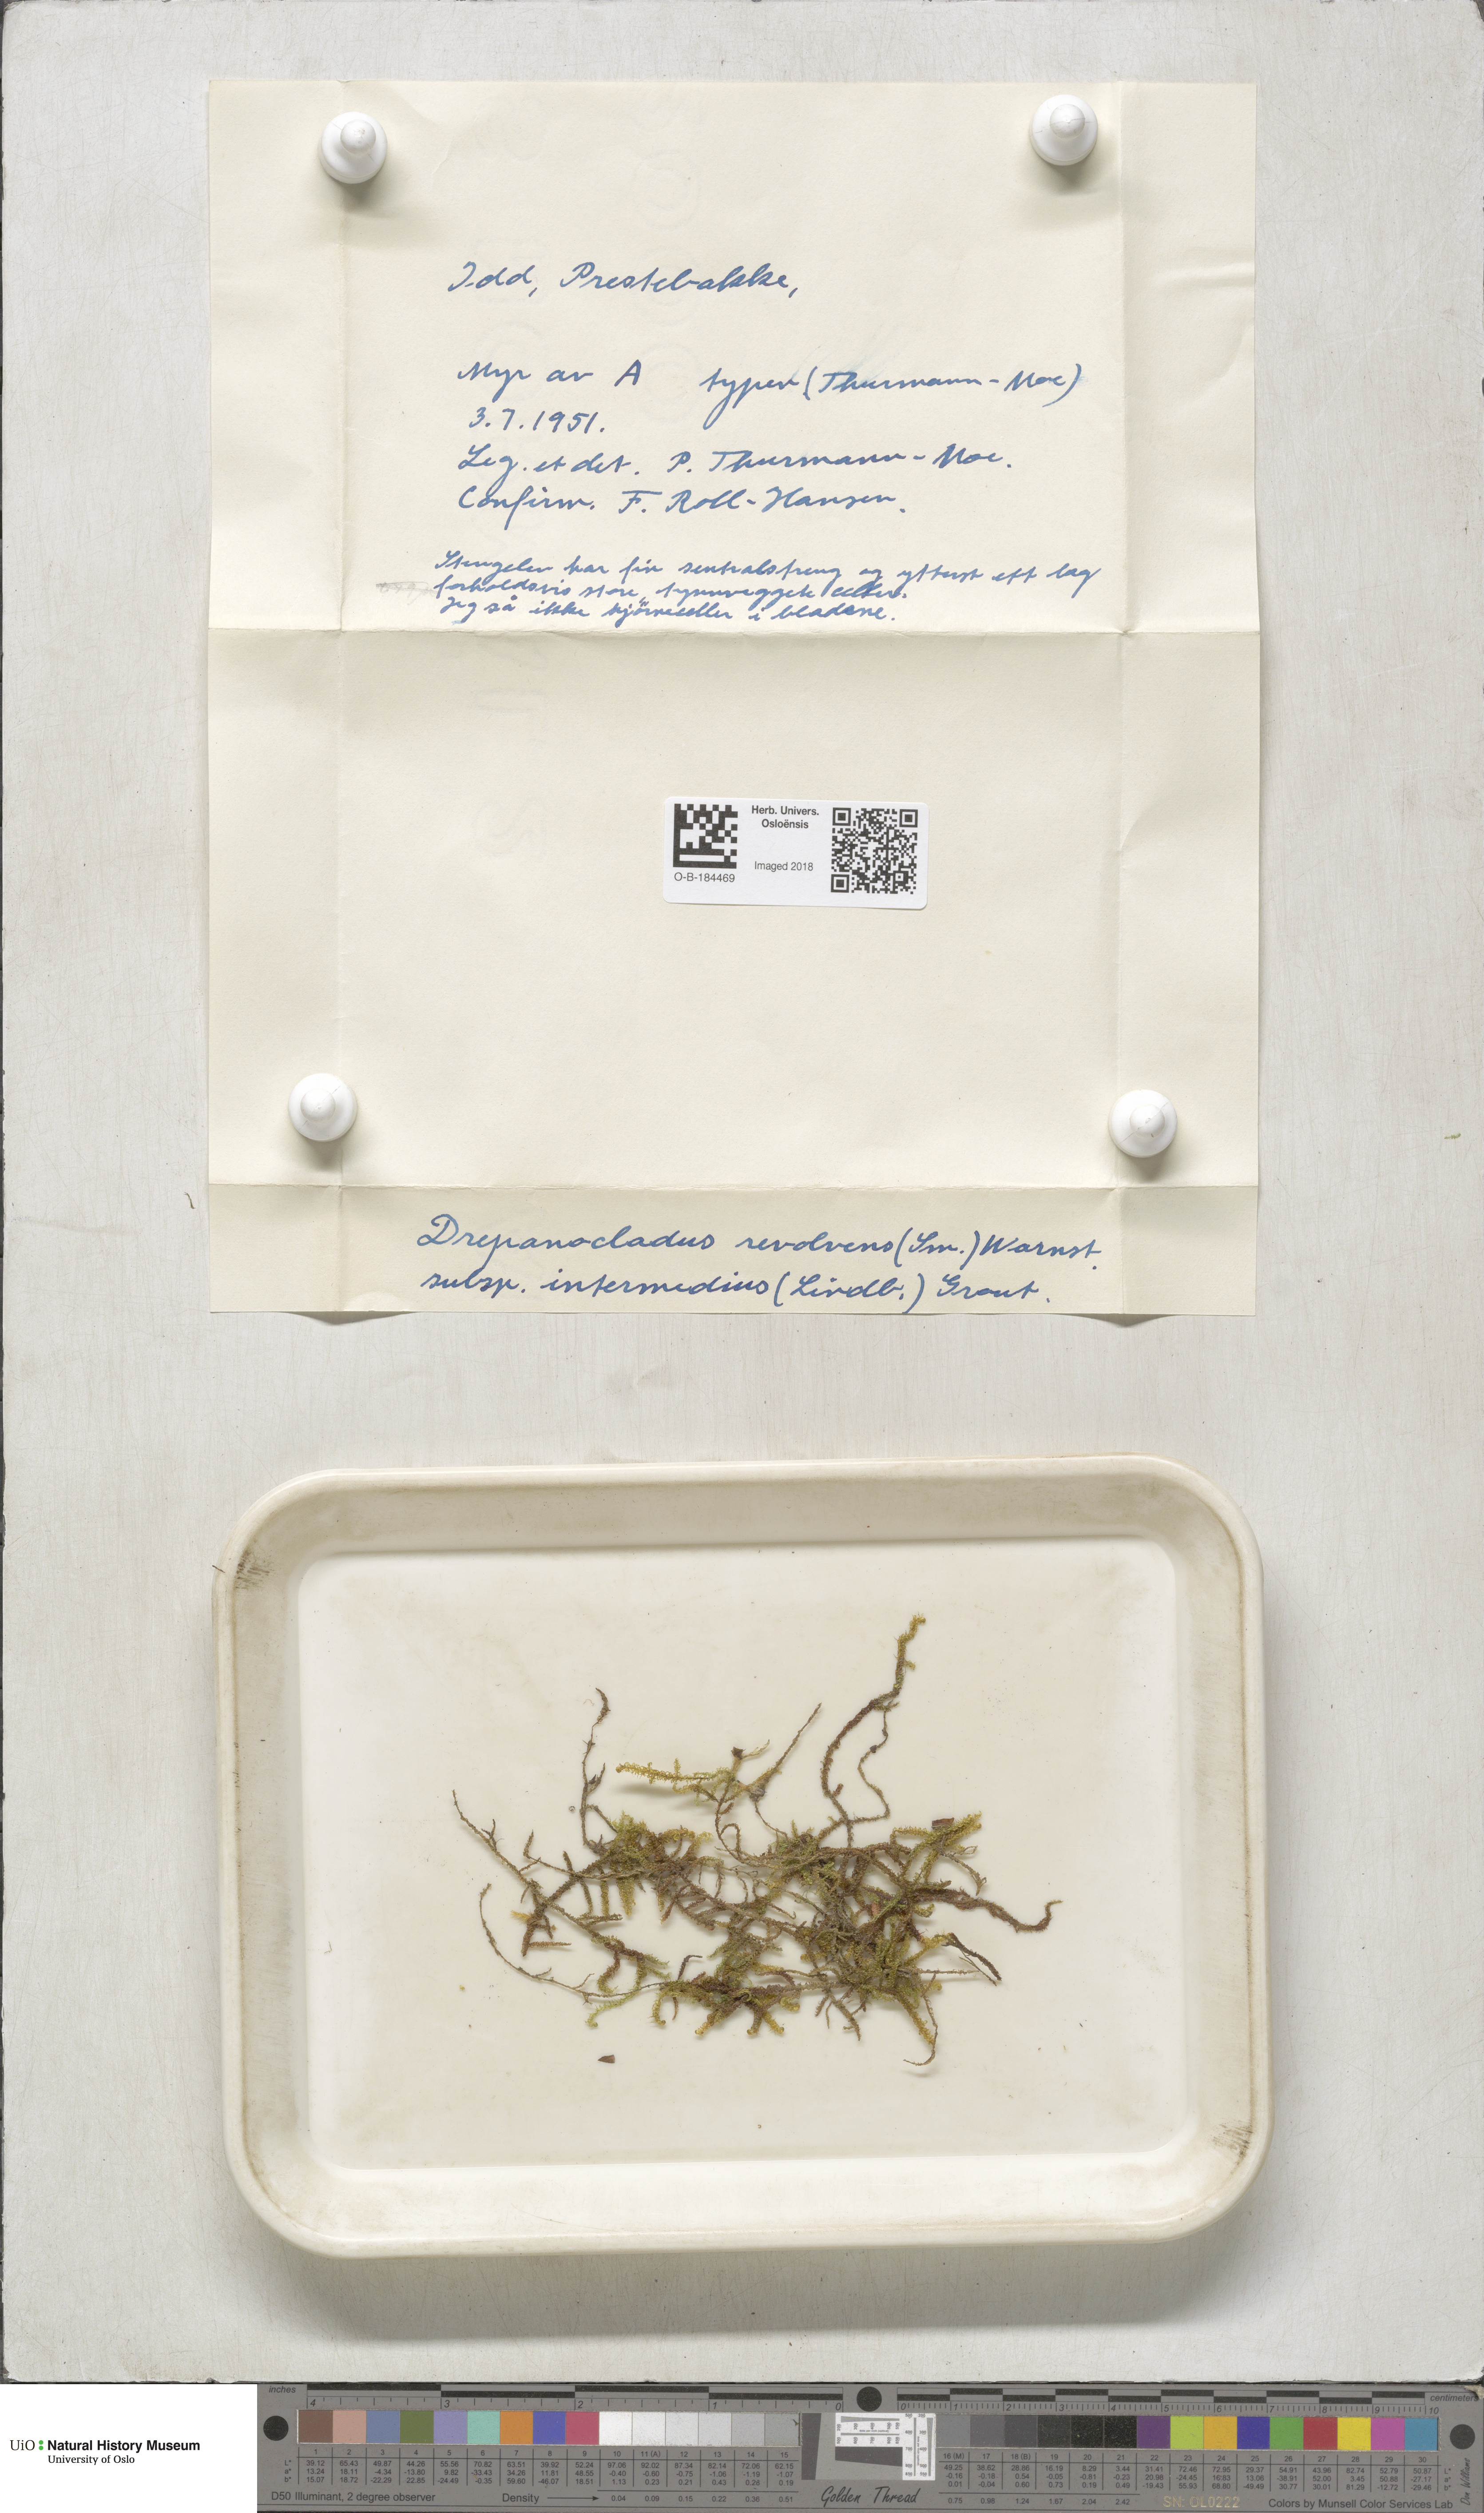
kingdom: Plantae
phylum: Bryophyta
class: Bryopsida
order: Hypnales
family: Scorpidiaceae
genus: Scorpidium
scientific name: Scorpidium cossonii
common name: Cosson's hook moss
